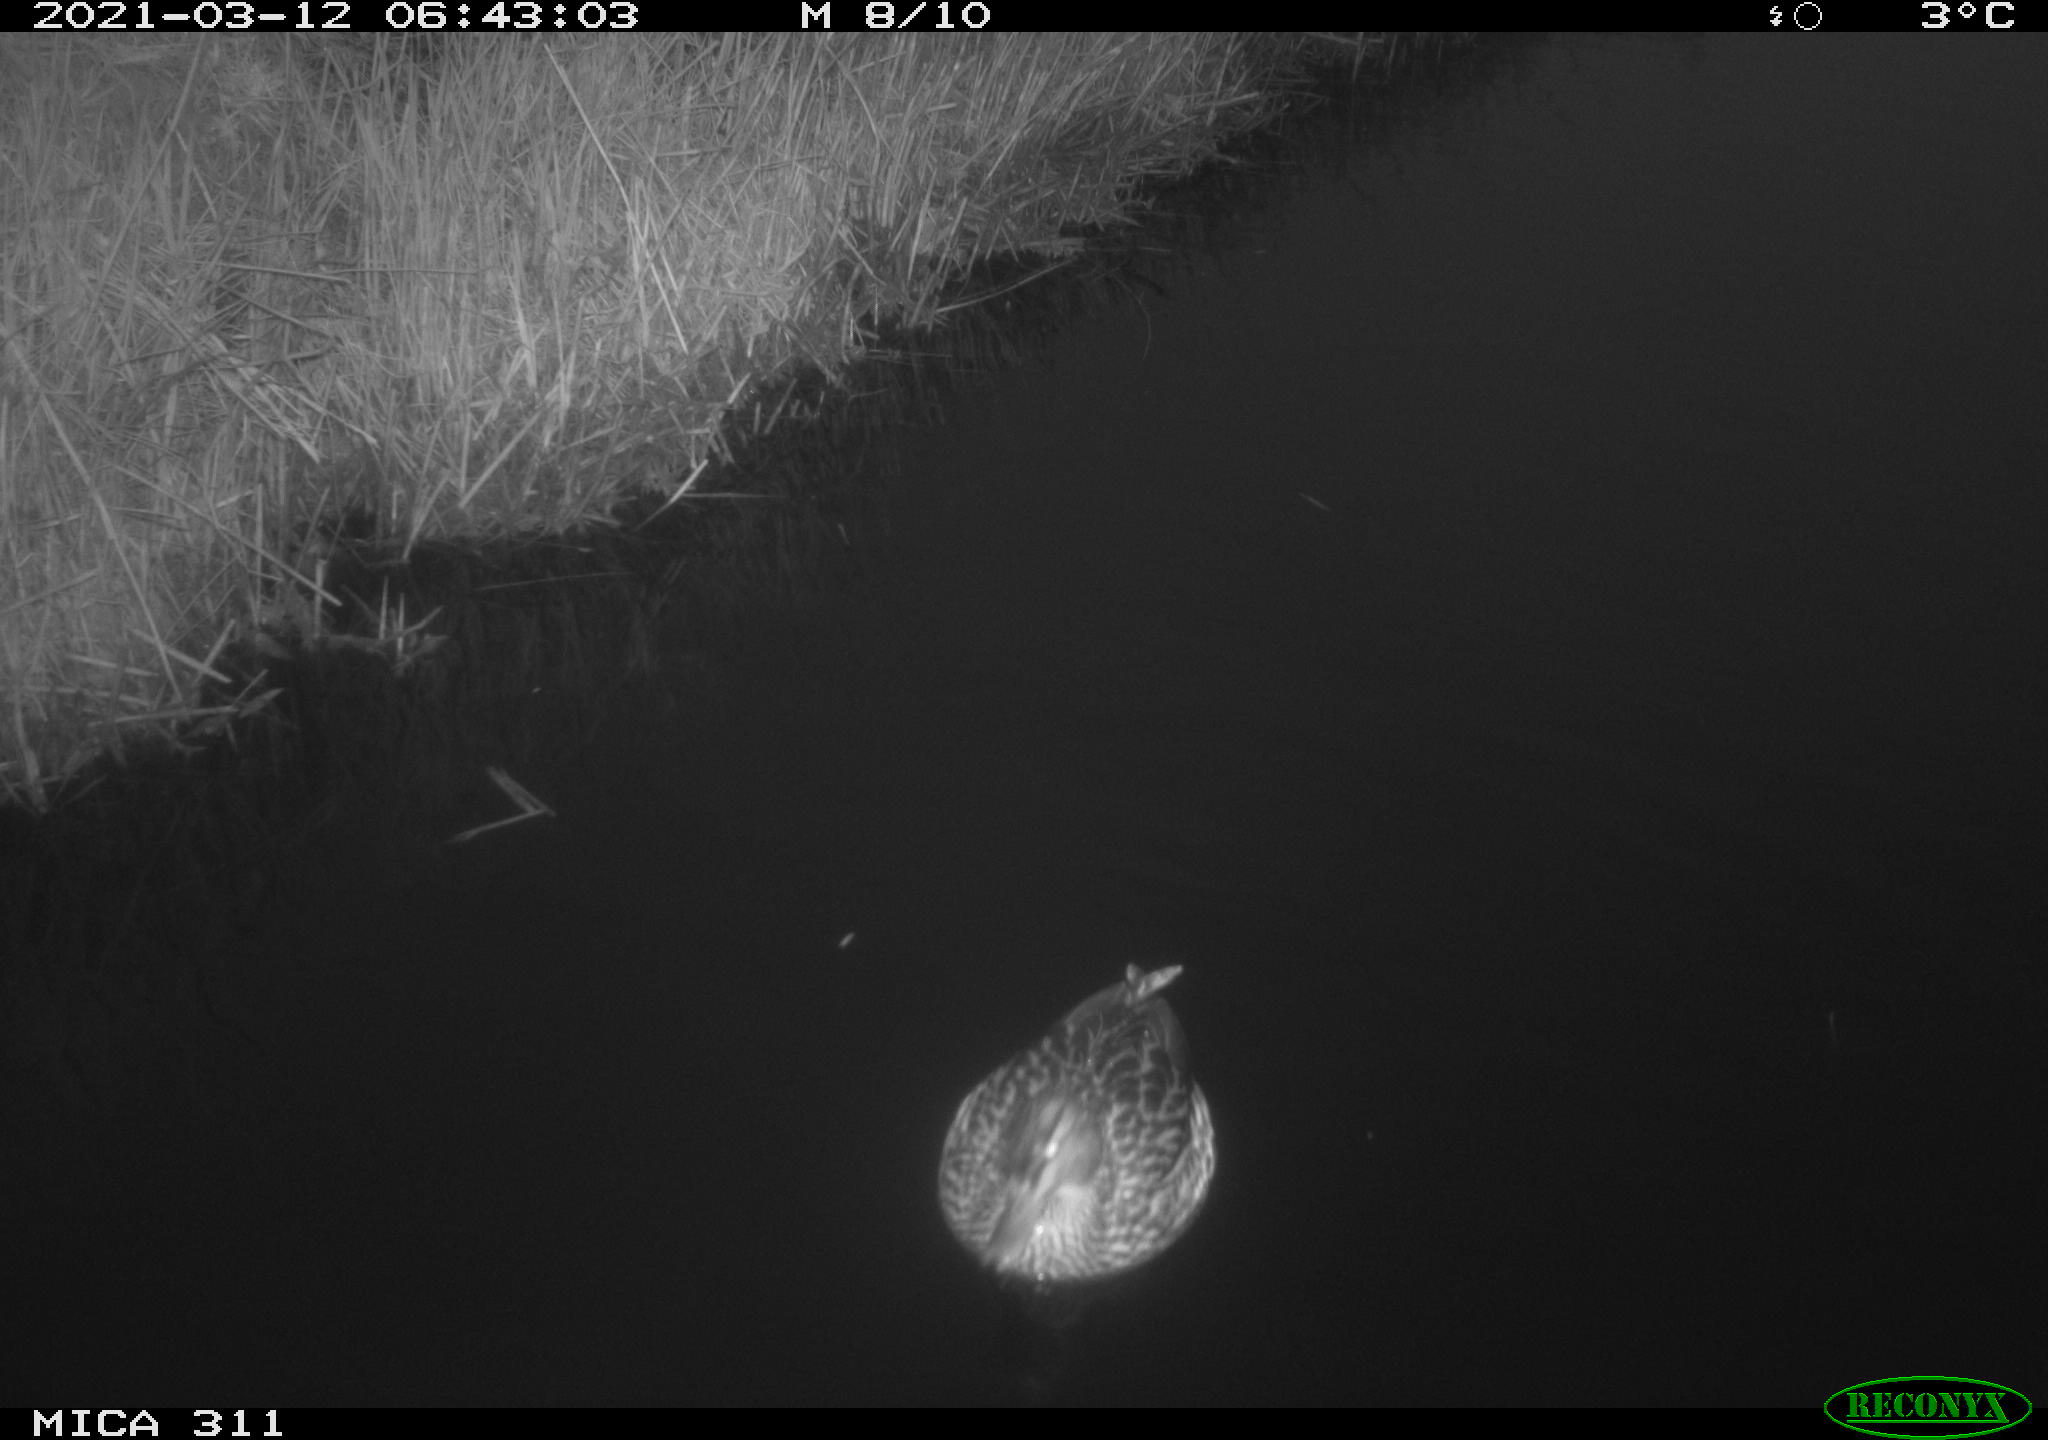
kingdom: Animalia
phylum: Chordata
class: Aves
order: Anseriformes
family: Anatidae
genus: Anas
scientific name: Anas
